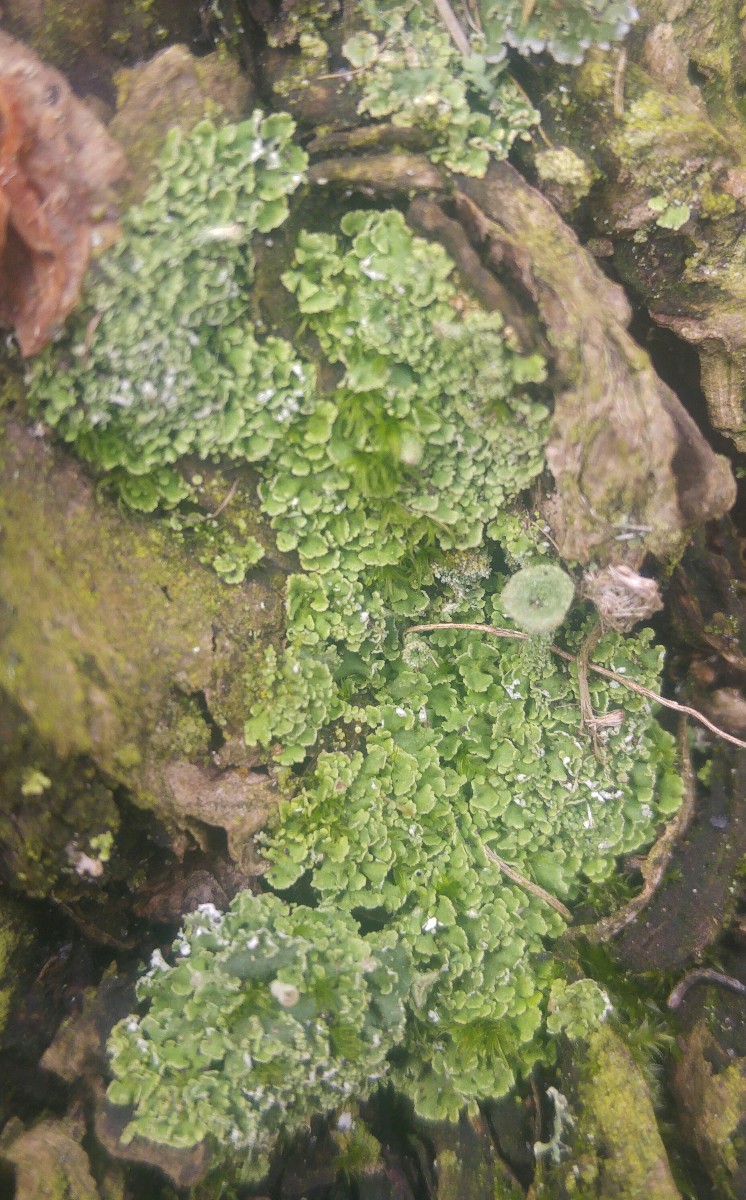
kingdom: Fungi
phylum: Ascomycota
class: Lecanoromycetes
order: Lecanorales
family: Cladoniaceae
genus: Cladonia
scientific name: Cladonia
